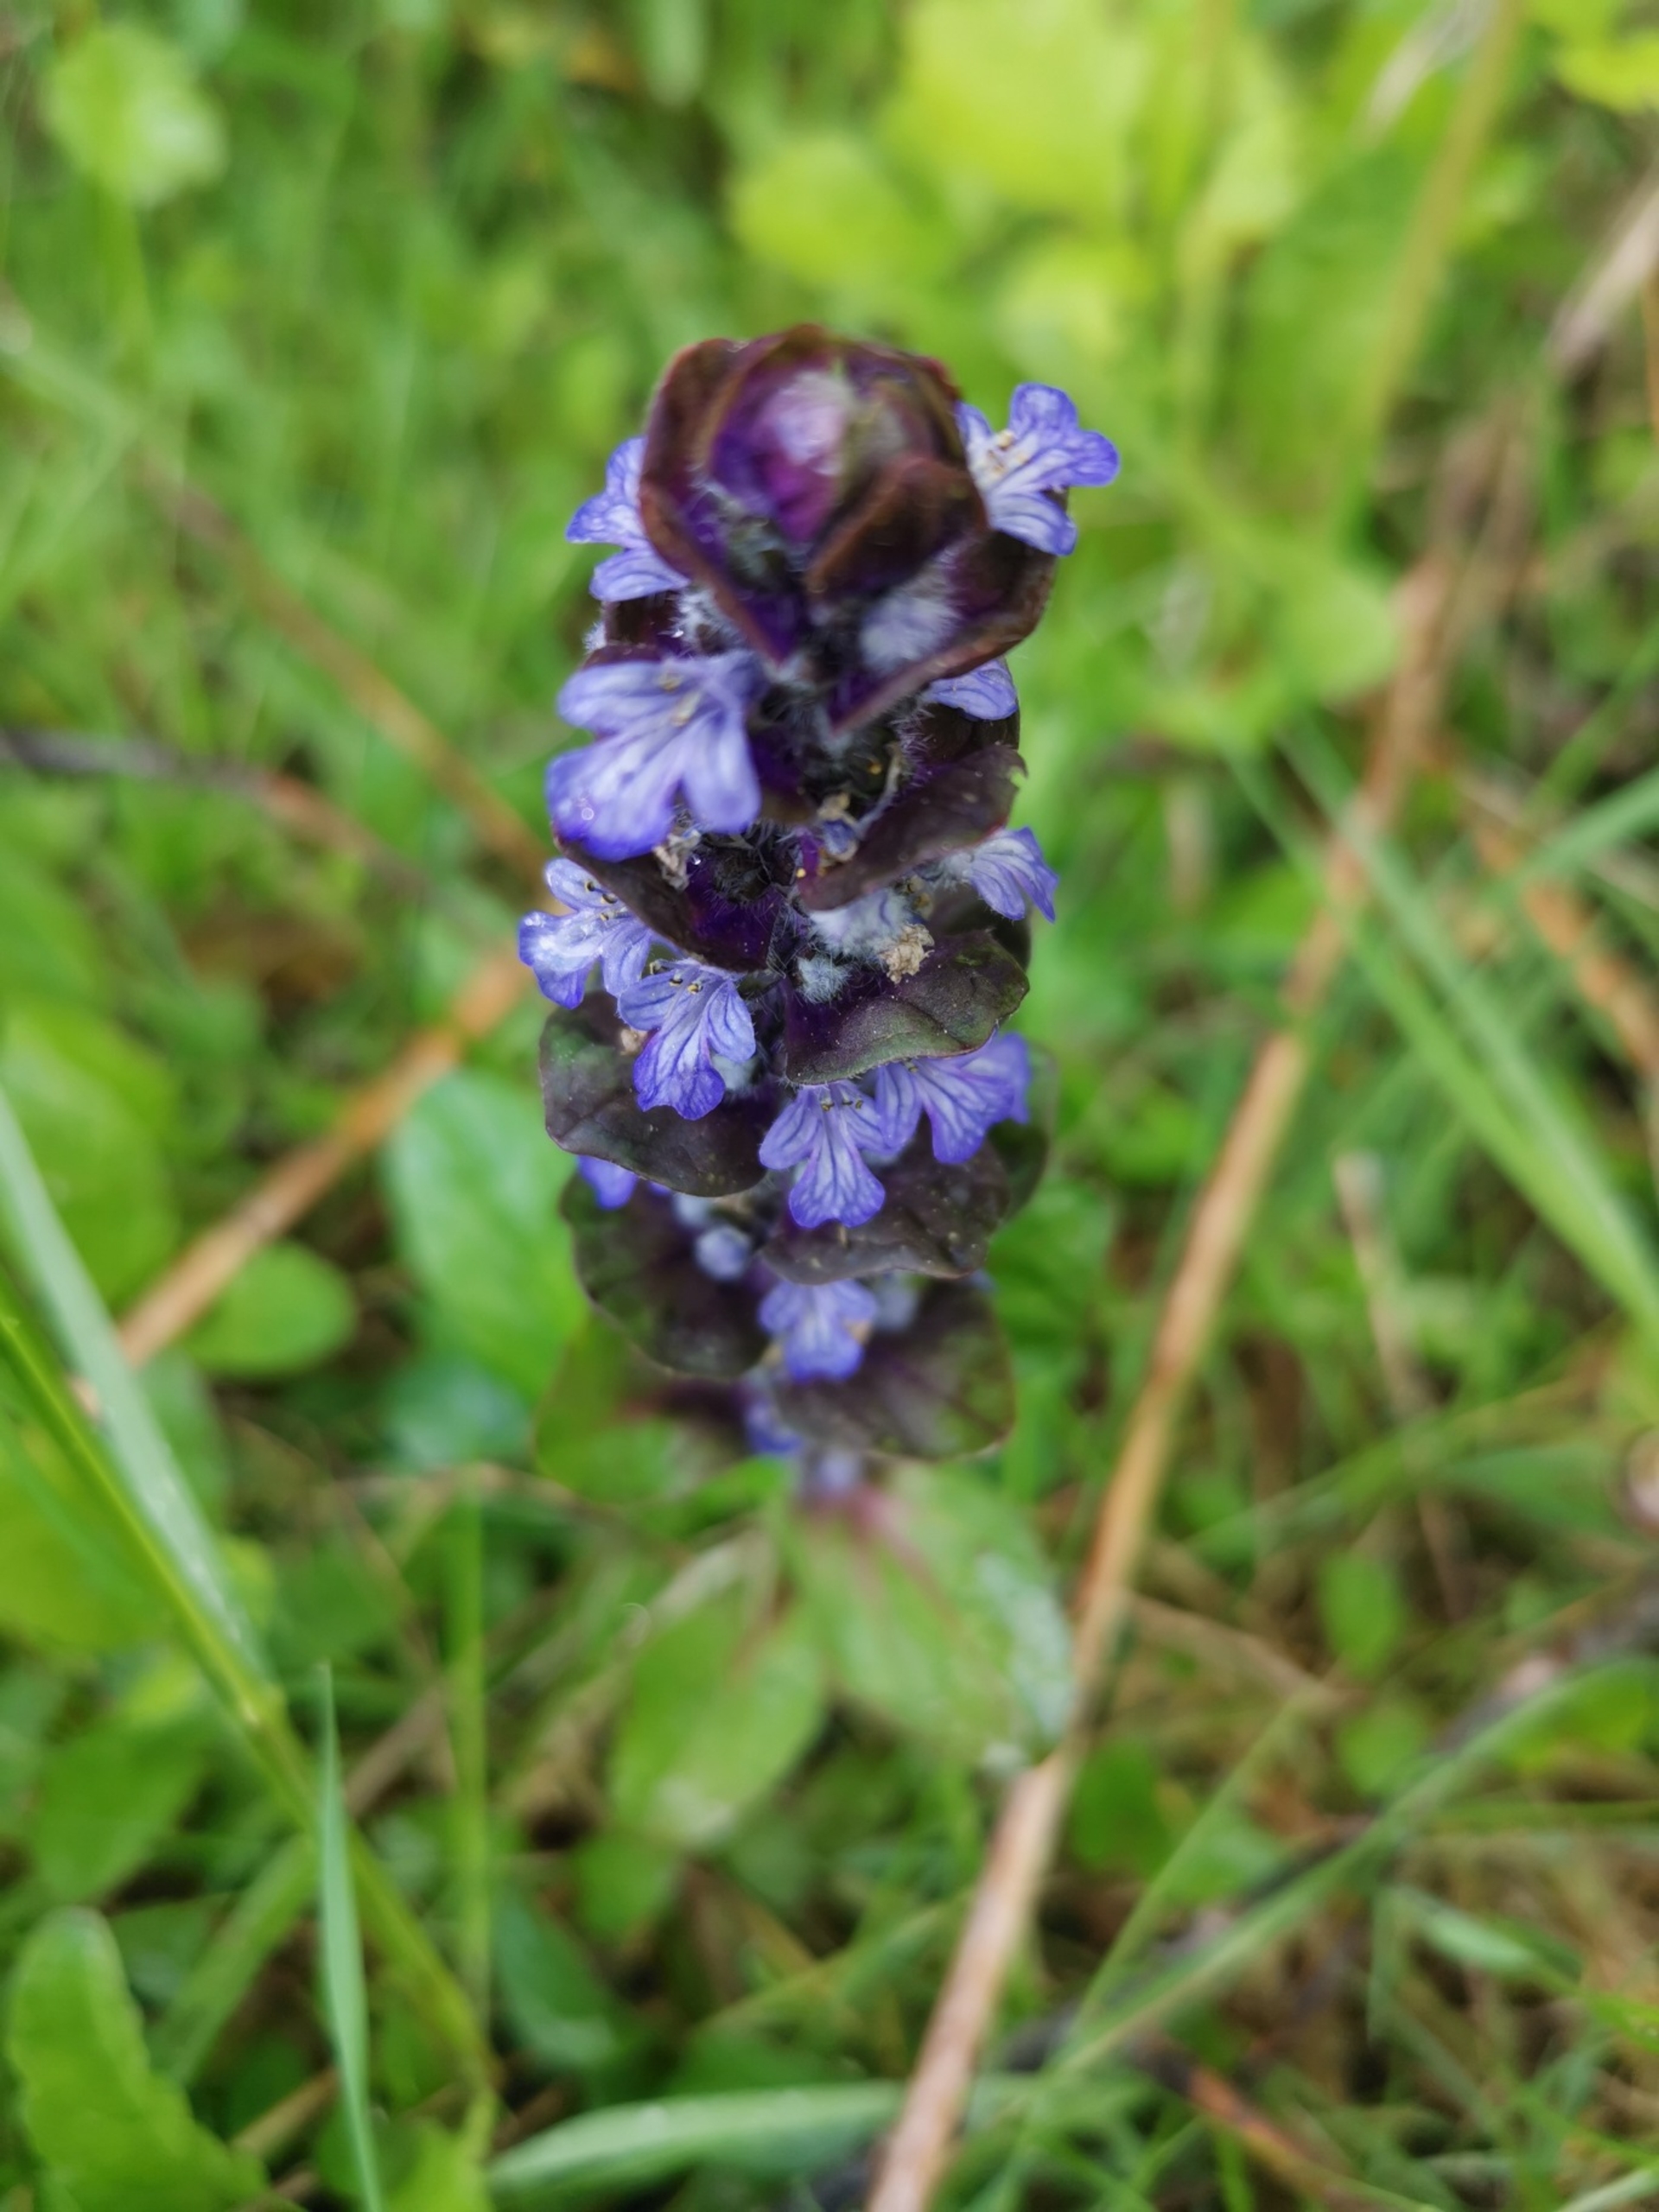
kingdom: Plantae
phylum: Tracheophyta
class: Magnoliopsida
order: Lamiales
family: Lamiaceae
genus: Ajuga
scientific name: Ajuga reptans
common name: Krybende læbeløs
